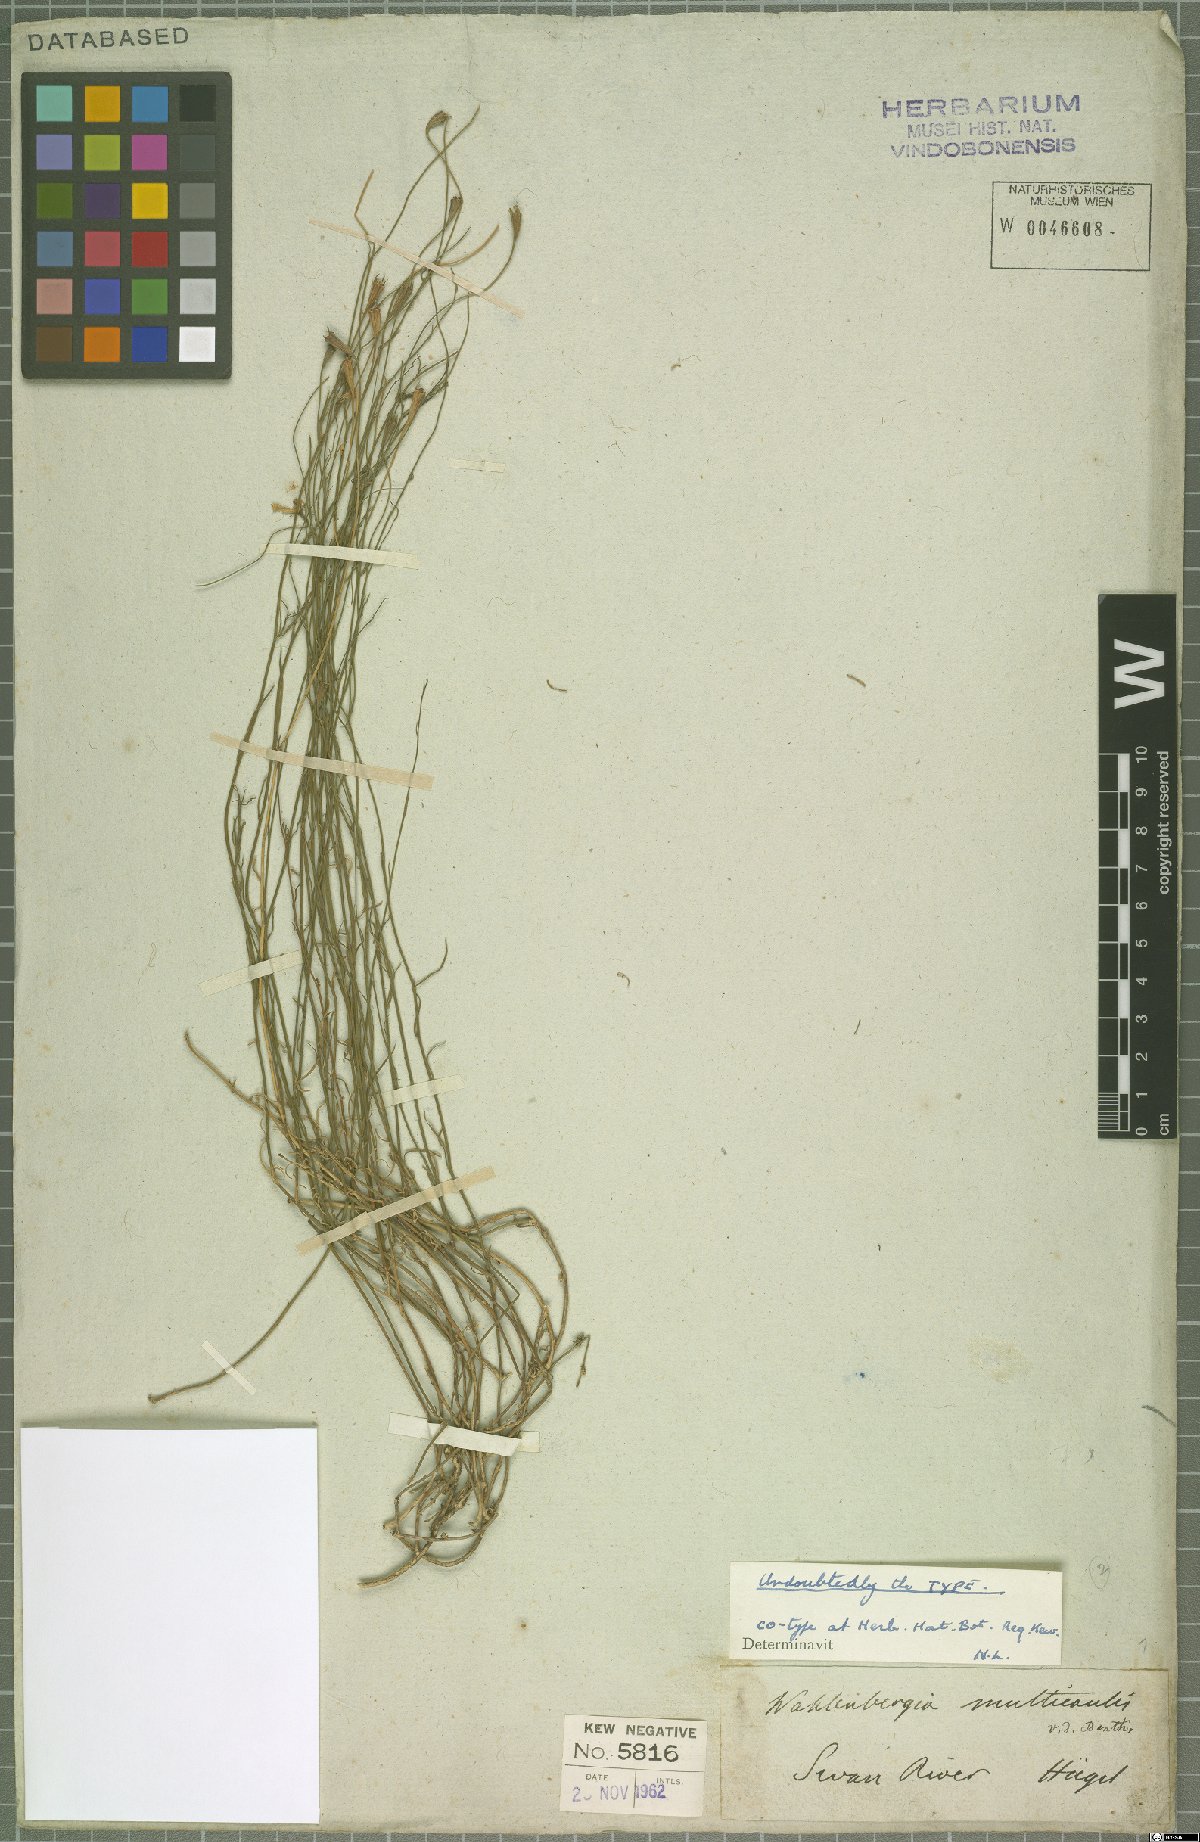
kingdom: Plantae
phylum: Tracheophyta
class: Magnoliopsida
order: Asterales
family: Campanulaceae
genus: Wahlenbergia
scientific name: Wahlenbergia multicaulis
